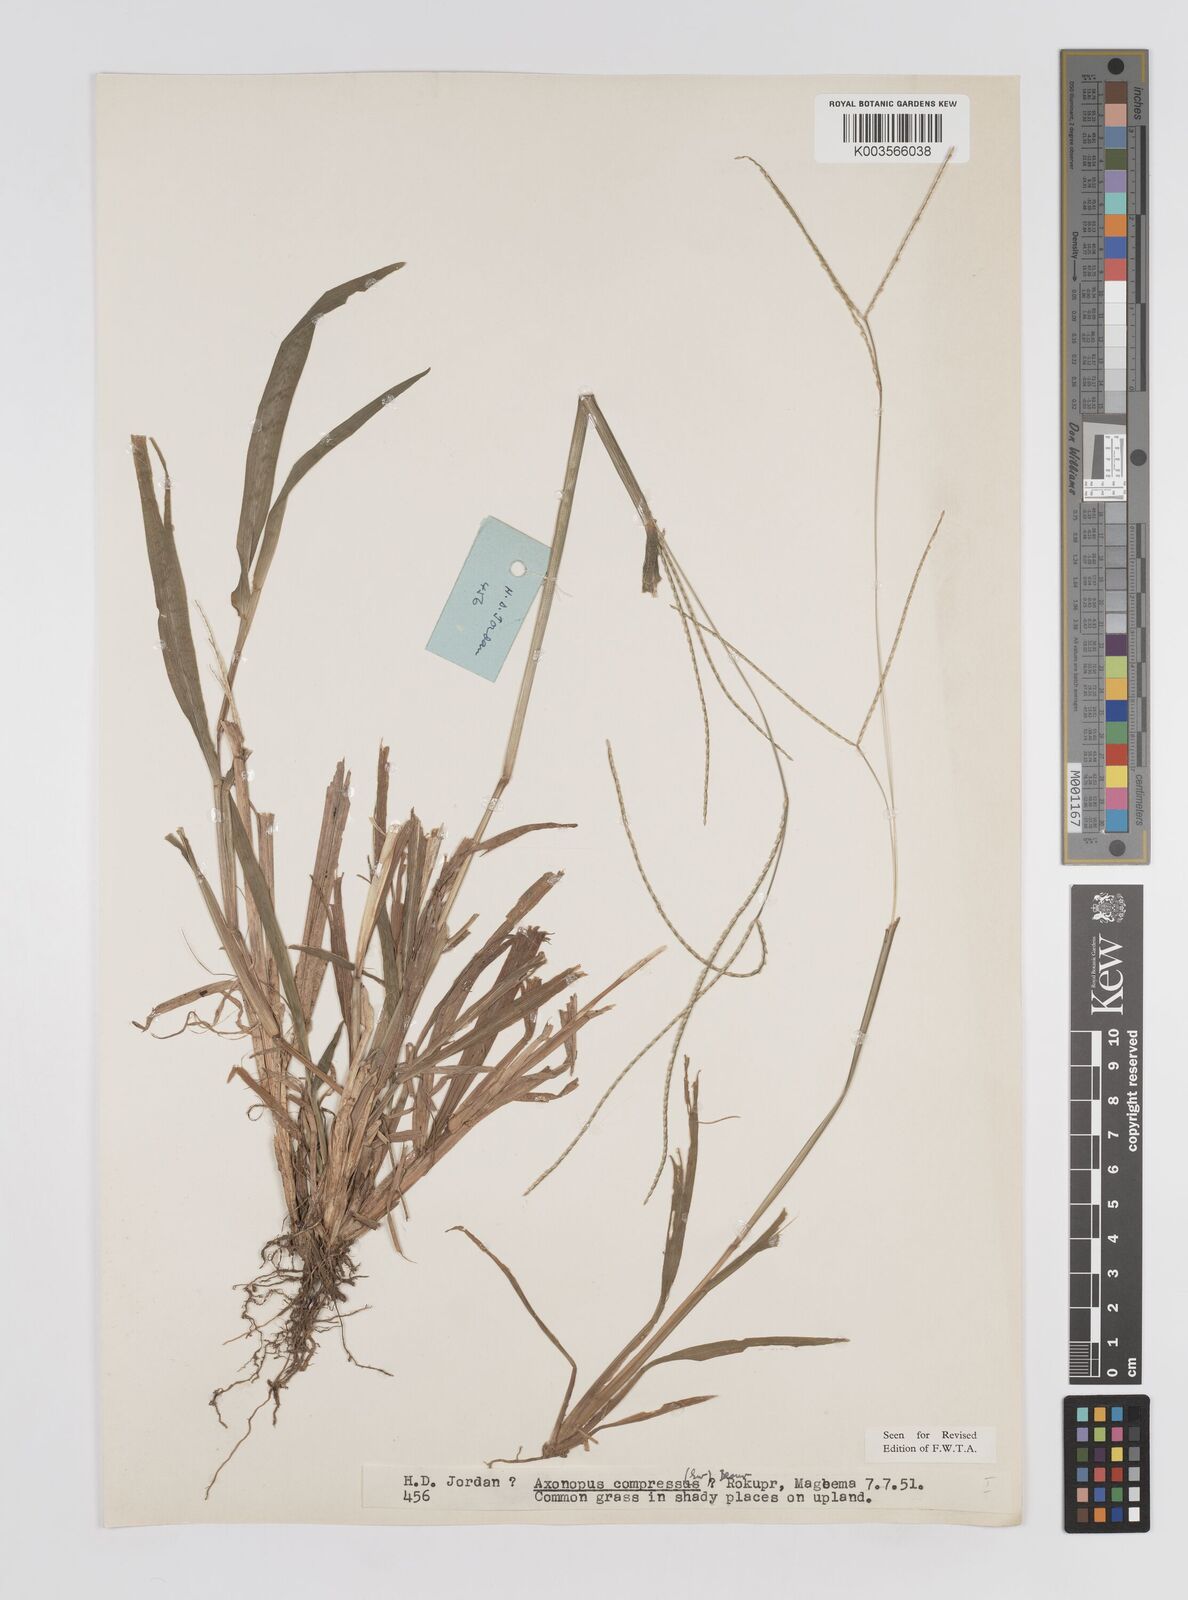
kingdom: Plantae
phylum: Tracheophyta
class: Liliopsida
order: Poales
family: Poaceae
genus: Axonopus
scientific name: Axonopus compressus
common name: American carpet grass
